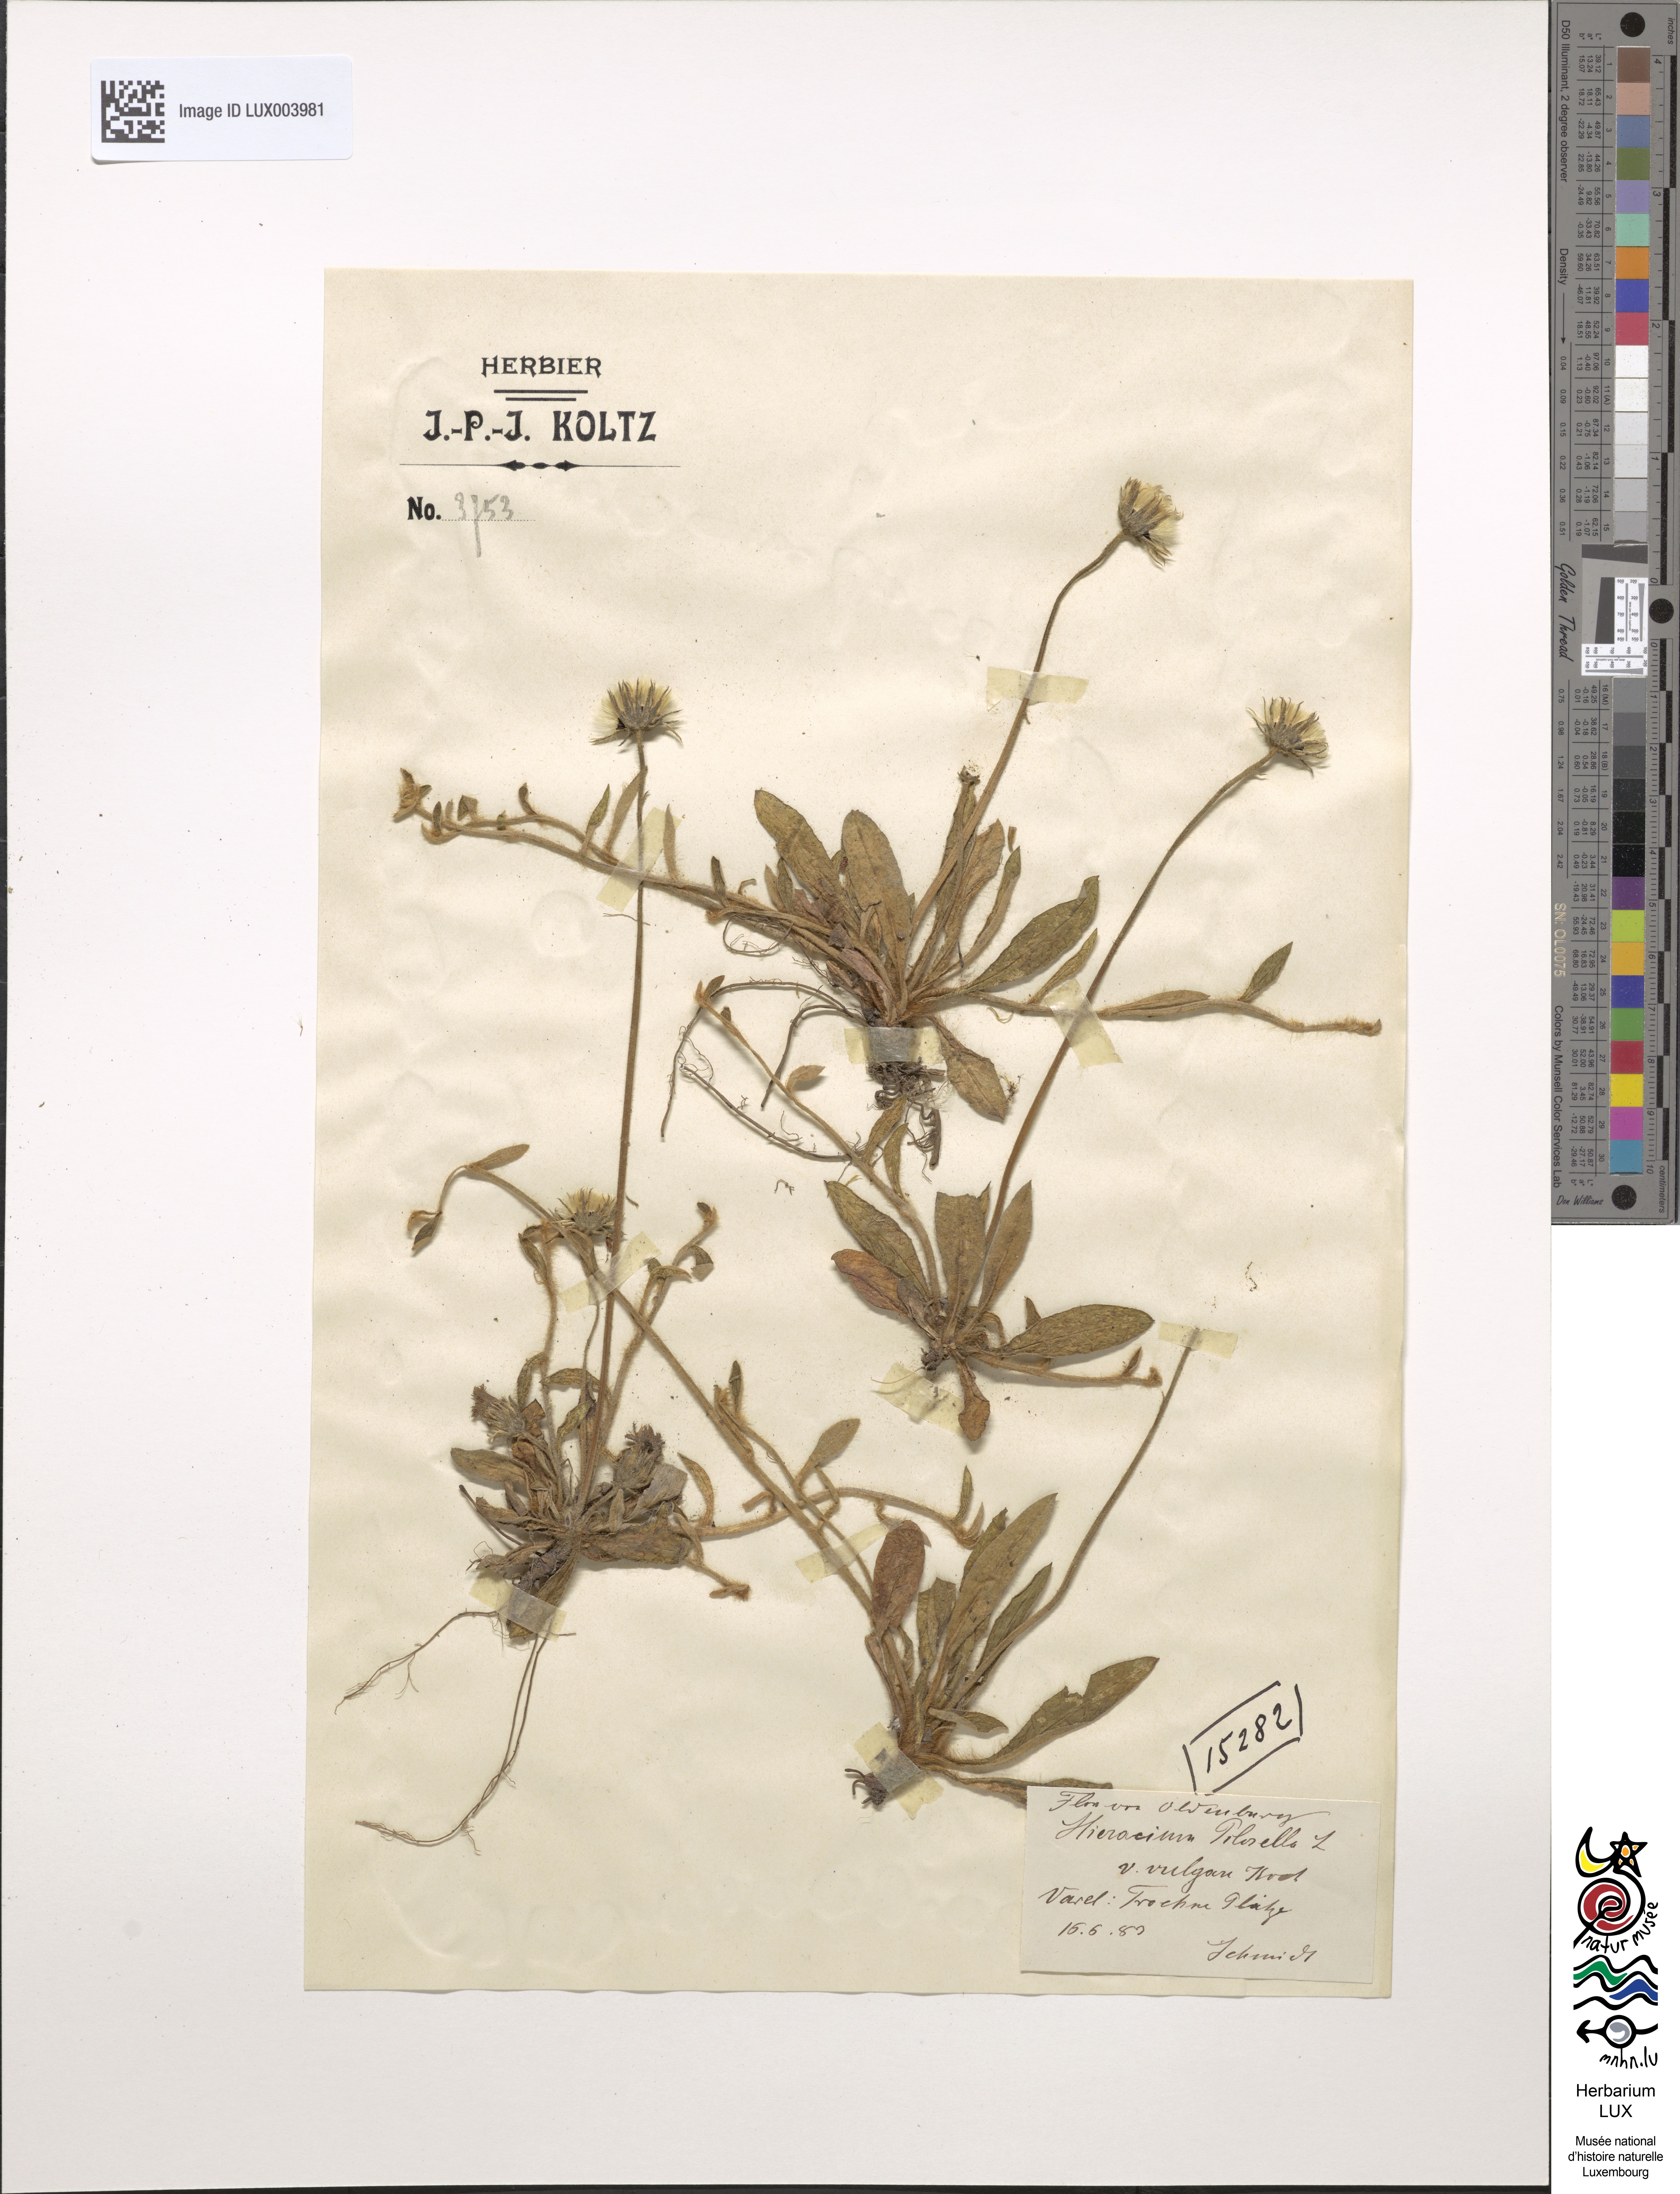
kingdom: Plantae
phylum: Tracheophyta
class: Magnoliopsida
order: Asterales
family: Asteraceae
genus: Pilosella
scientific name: Pilosella officinarum
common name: Mouse-ear hawkweed
